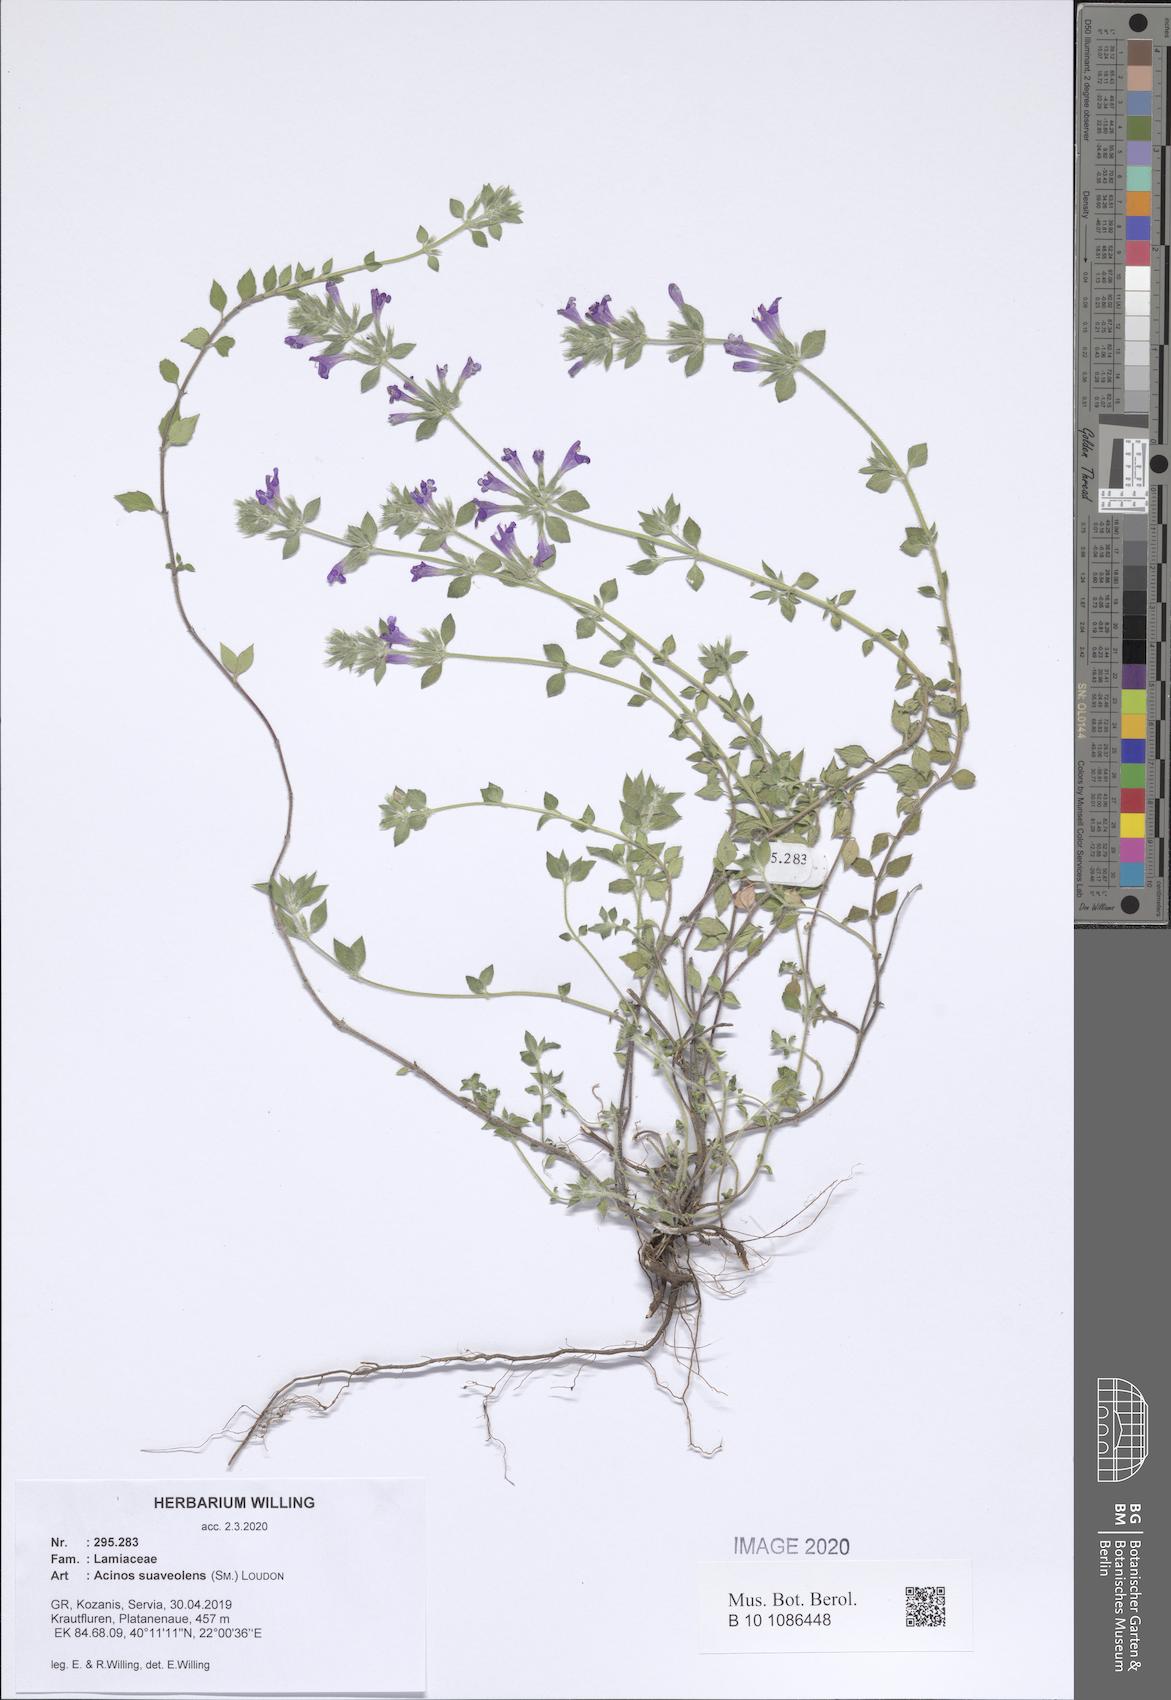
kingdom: Plantae
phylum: Tracheophyta
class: Magnoliopsida
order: Lamiales
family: Lamiaceae
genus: Clinopodium
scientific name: Clinopodium suaveolens
